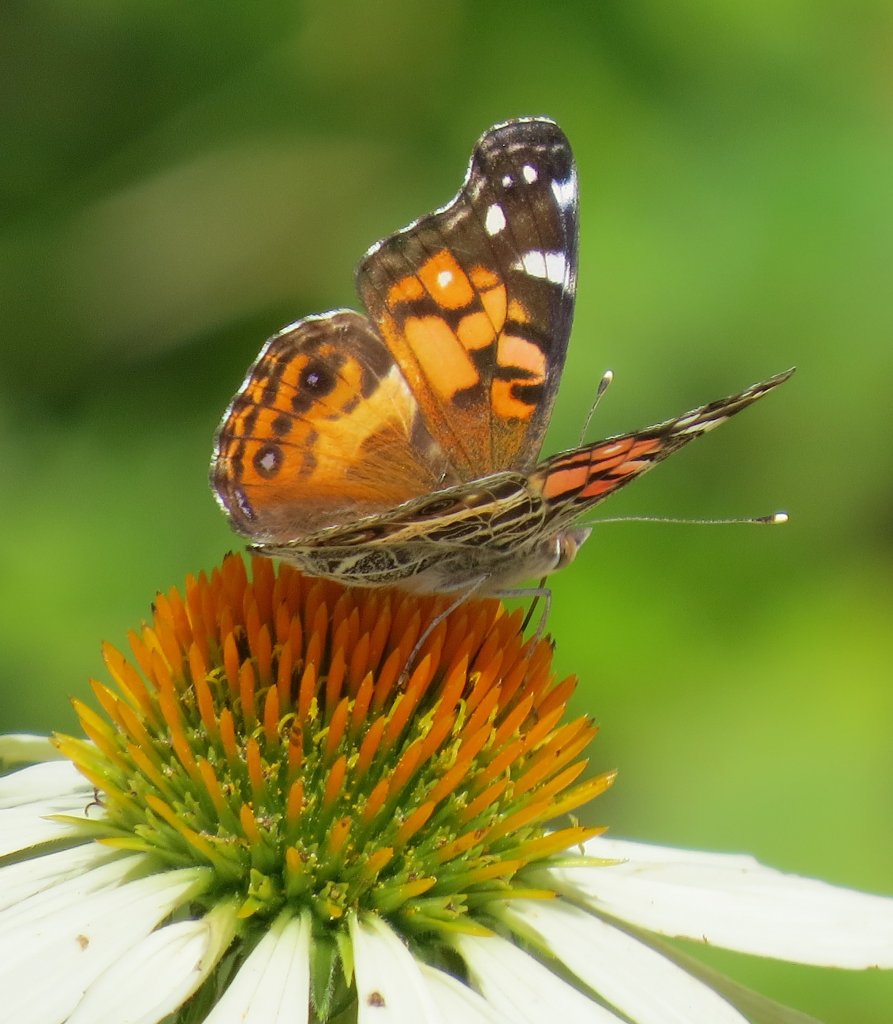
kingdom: Animalia
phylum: Arthropoda
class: Insecta
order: Lepidoptera
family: Nymphalidae
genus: Vanessa
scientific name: Vanessa virginiensis
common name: American Lady
